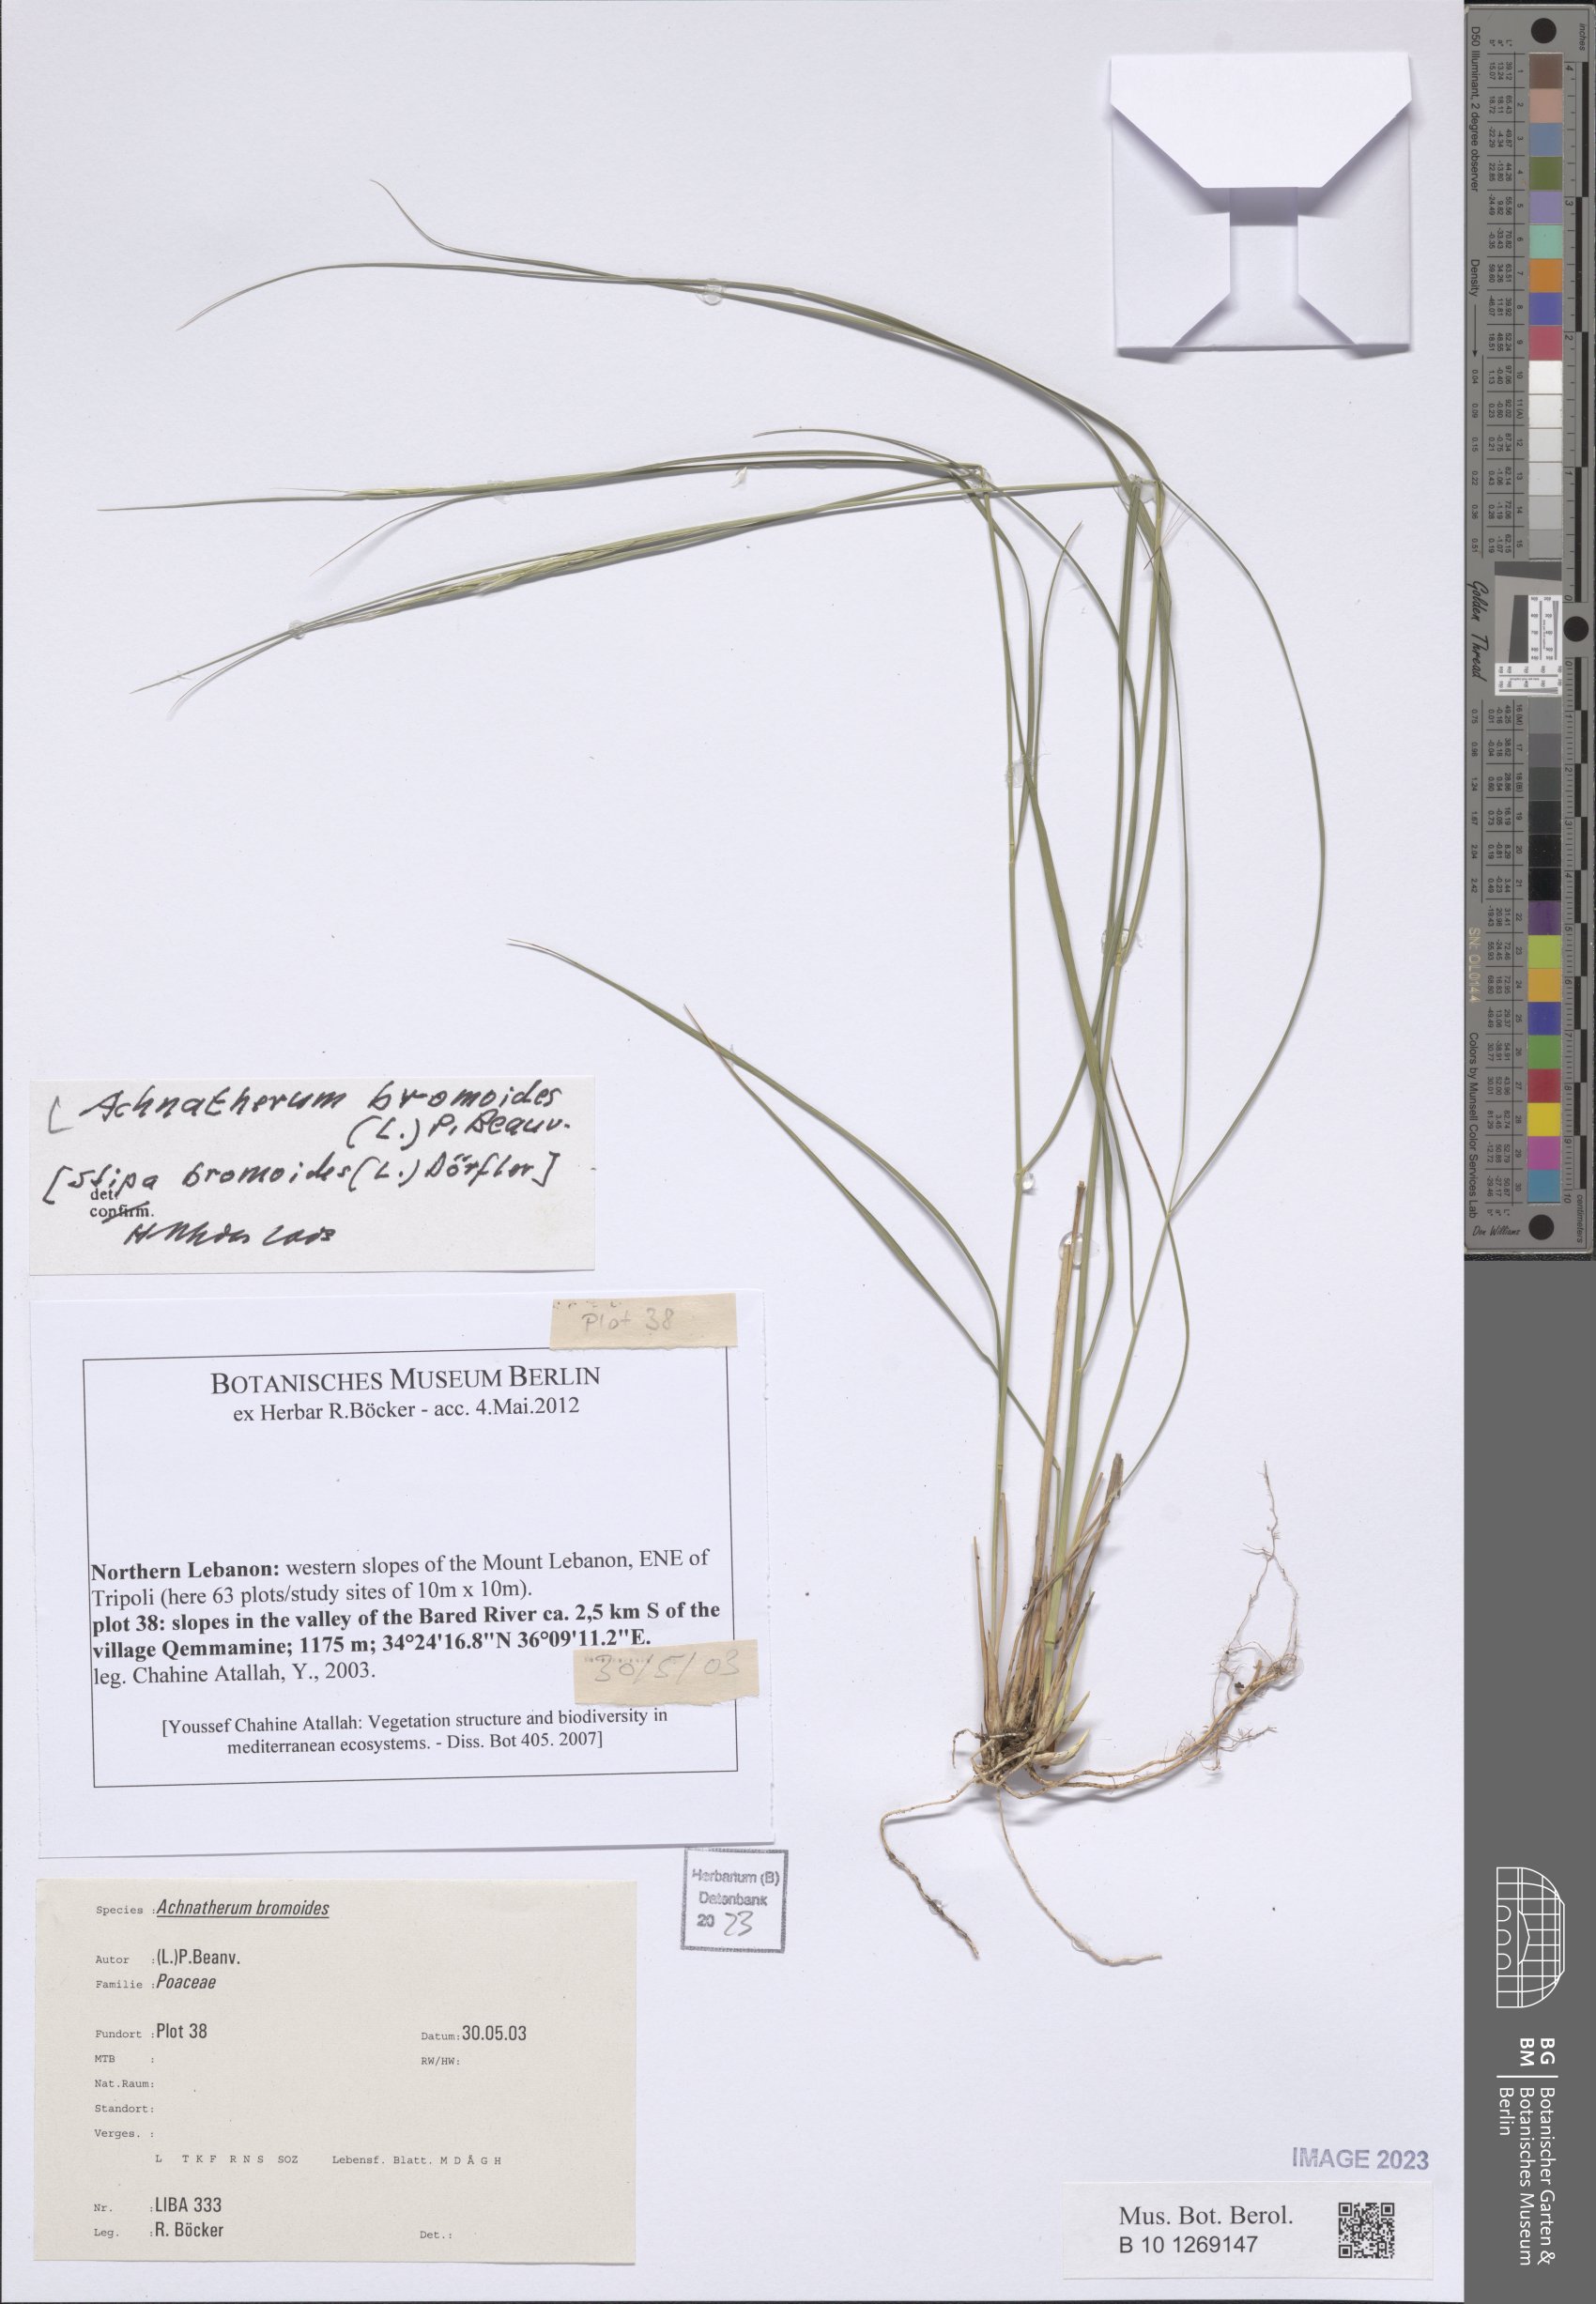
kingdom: Plantae
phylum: Tracheophyta
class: Liliopsida
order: Poales
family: Poaceae
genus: Achnatherum
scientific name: Achnatherum bromoides
